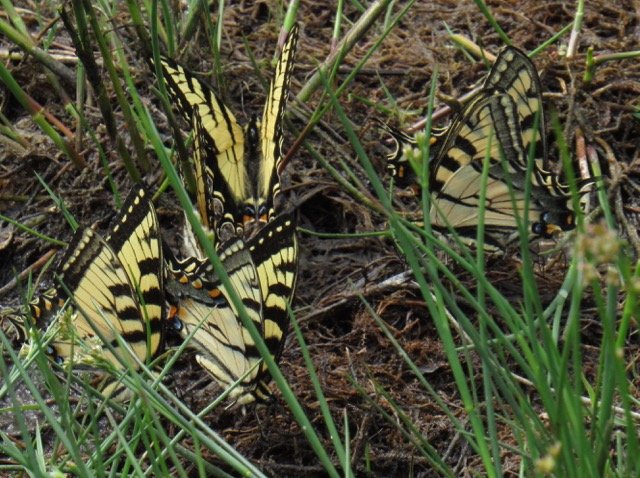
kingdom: Animalia
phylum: Arthropoda
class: Insecta
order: Lepidoptera
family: Papilionidae
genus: Pterourus
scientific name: Pterourus
